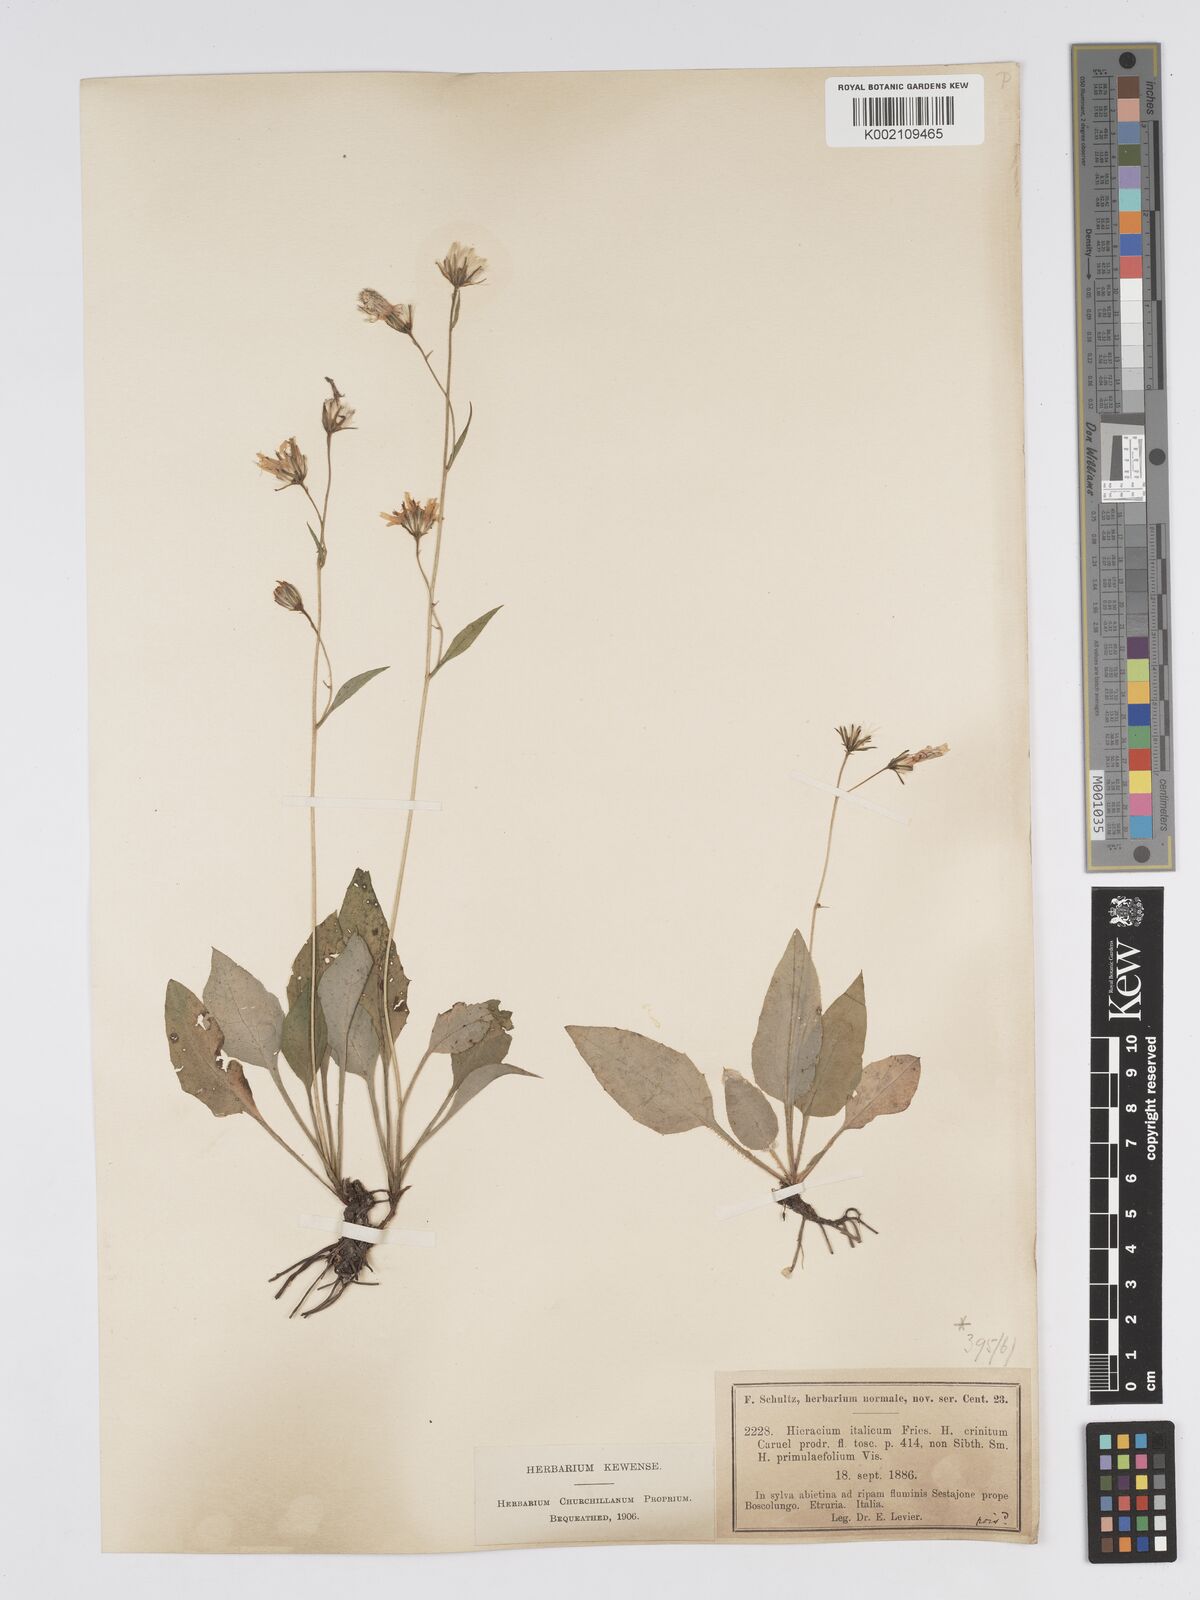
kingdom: Plantae
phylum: Tracheophyta
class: Magnoliopsida
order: Asterales
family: Asteraceae
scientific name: Asteraceae
